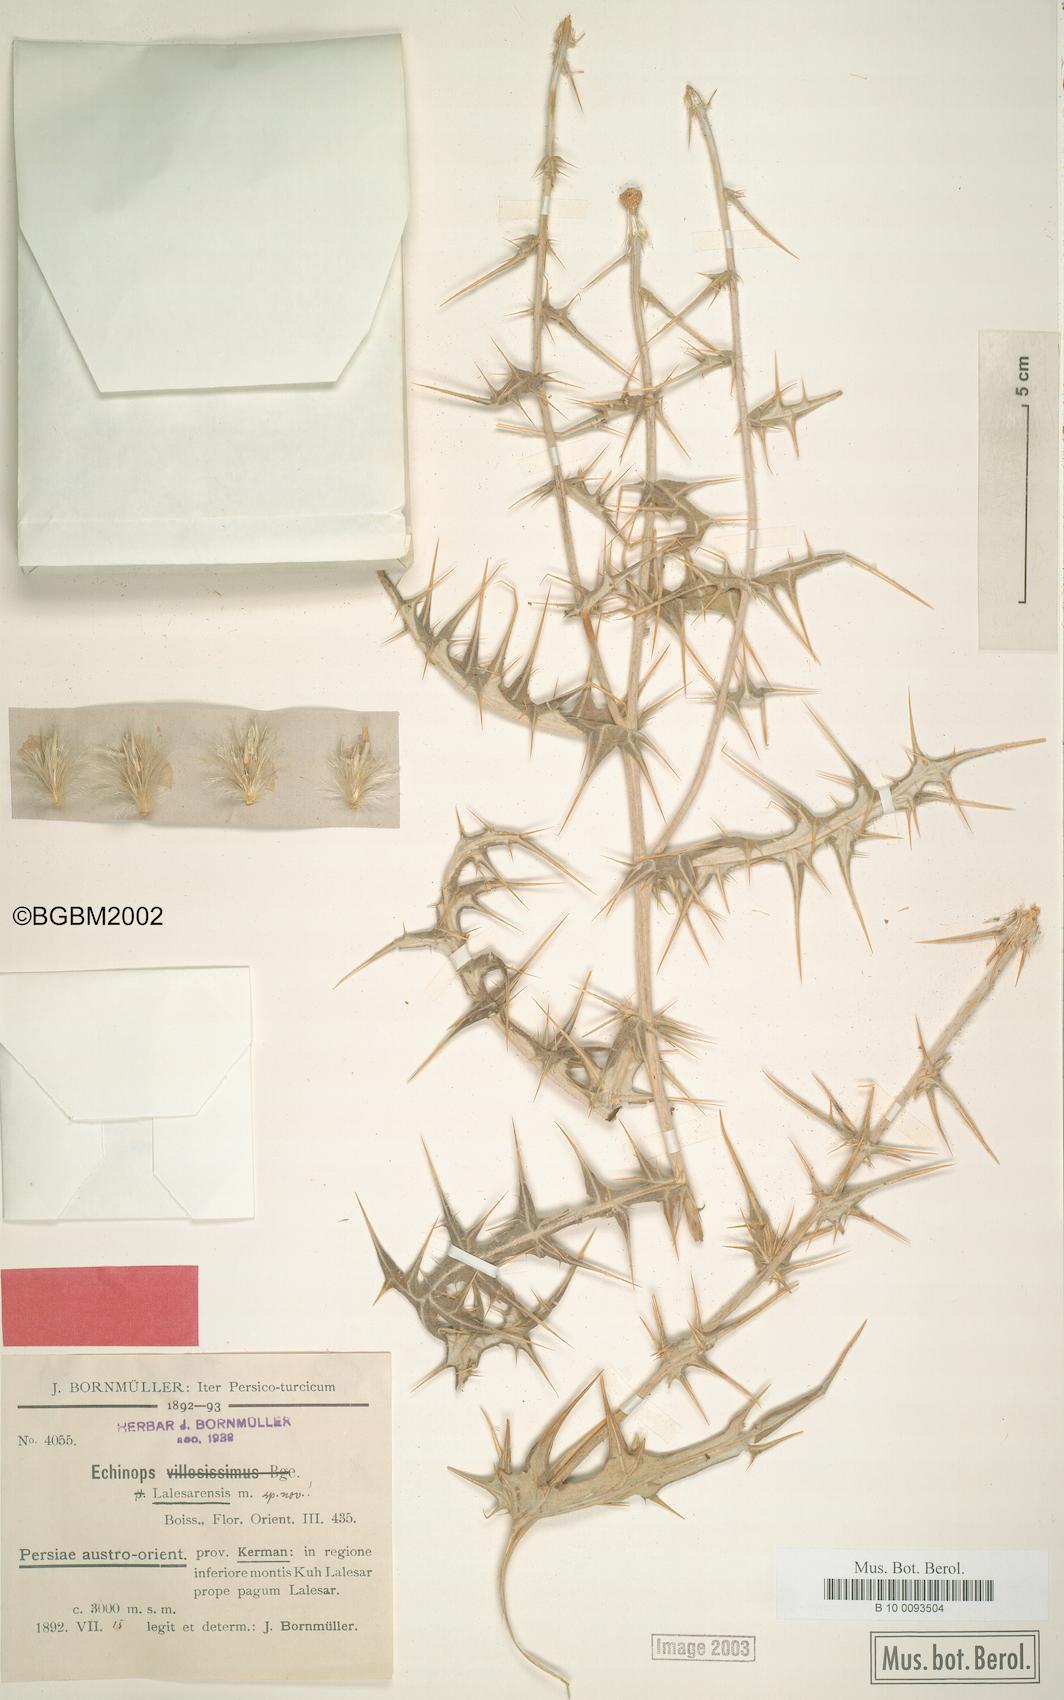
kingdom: Plantae
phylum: Tracheophyta
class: Magnoliopsida
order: Asterales
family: Asteraceae
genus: Echinops
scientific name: Echinops lalesarensis
